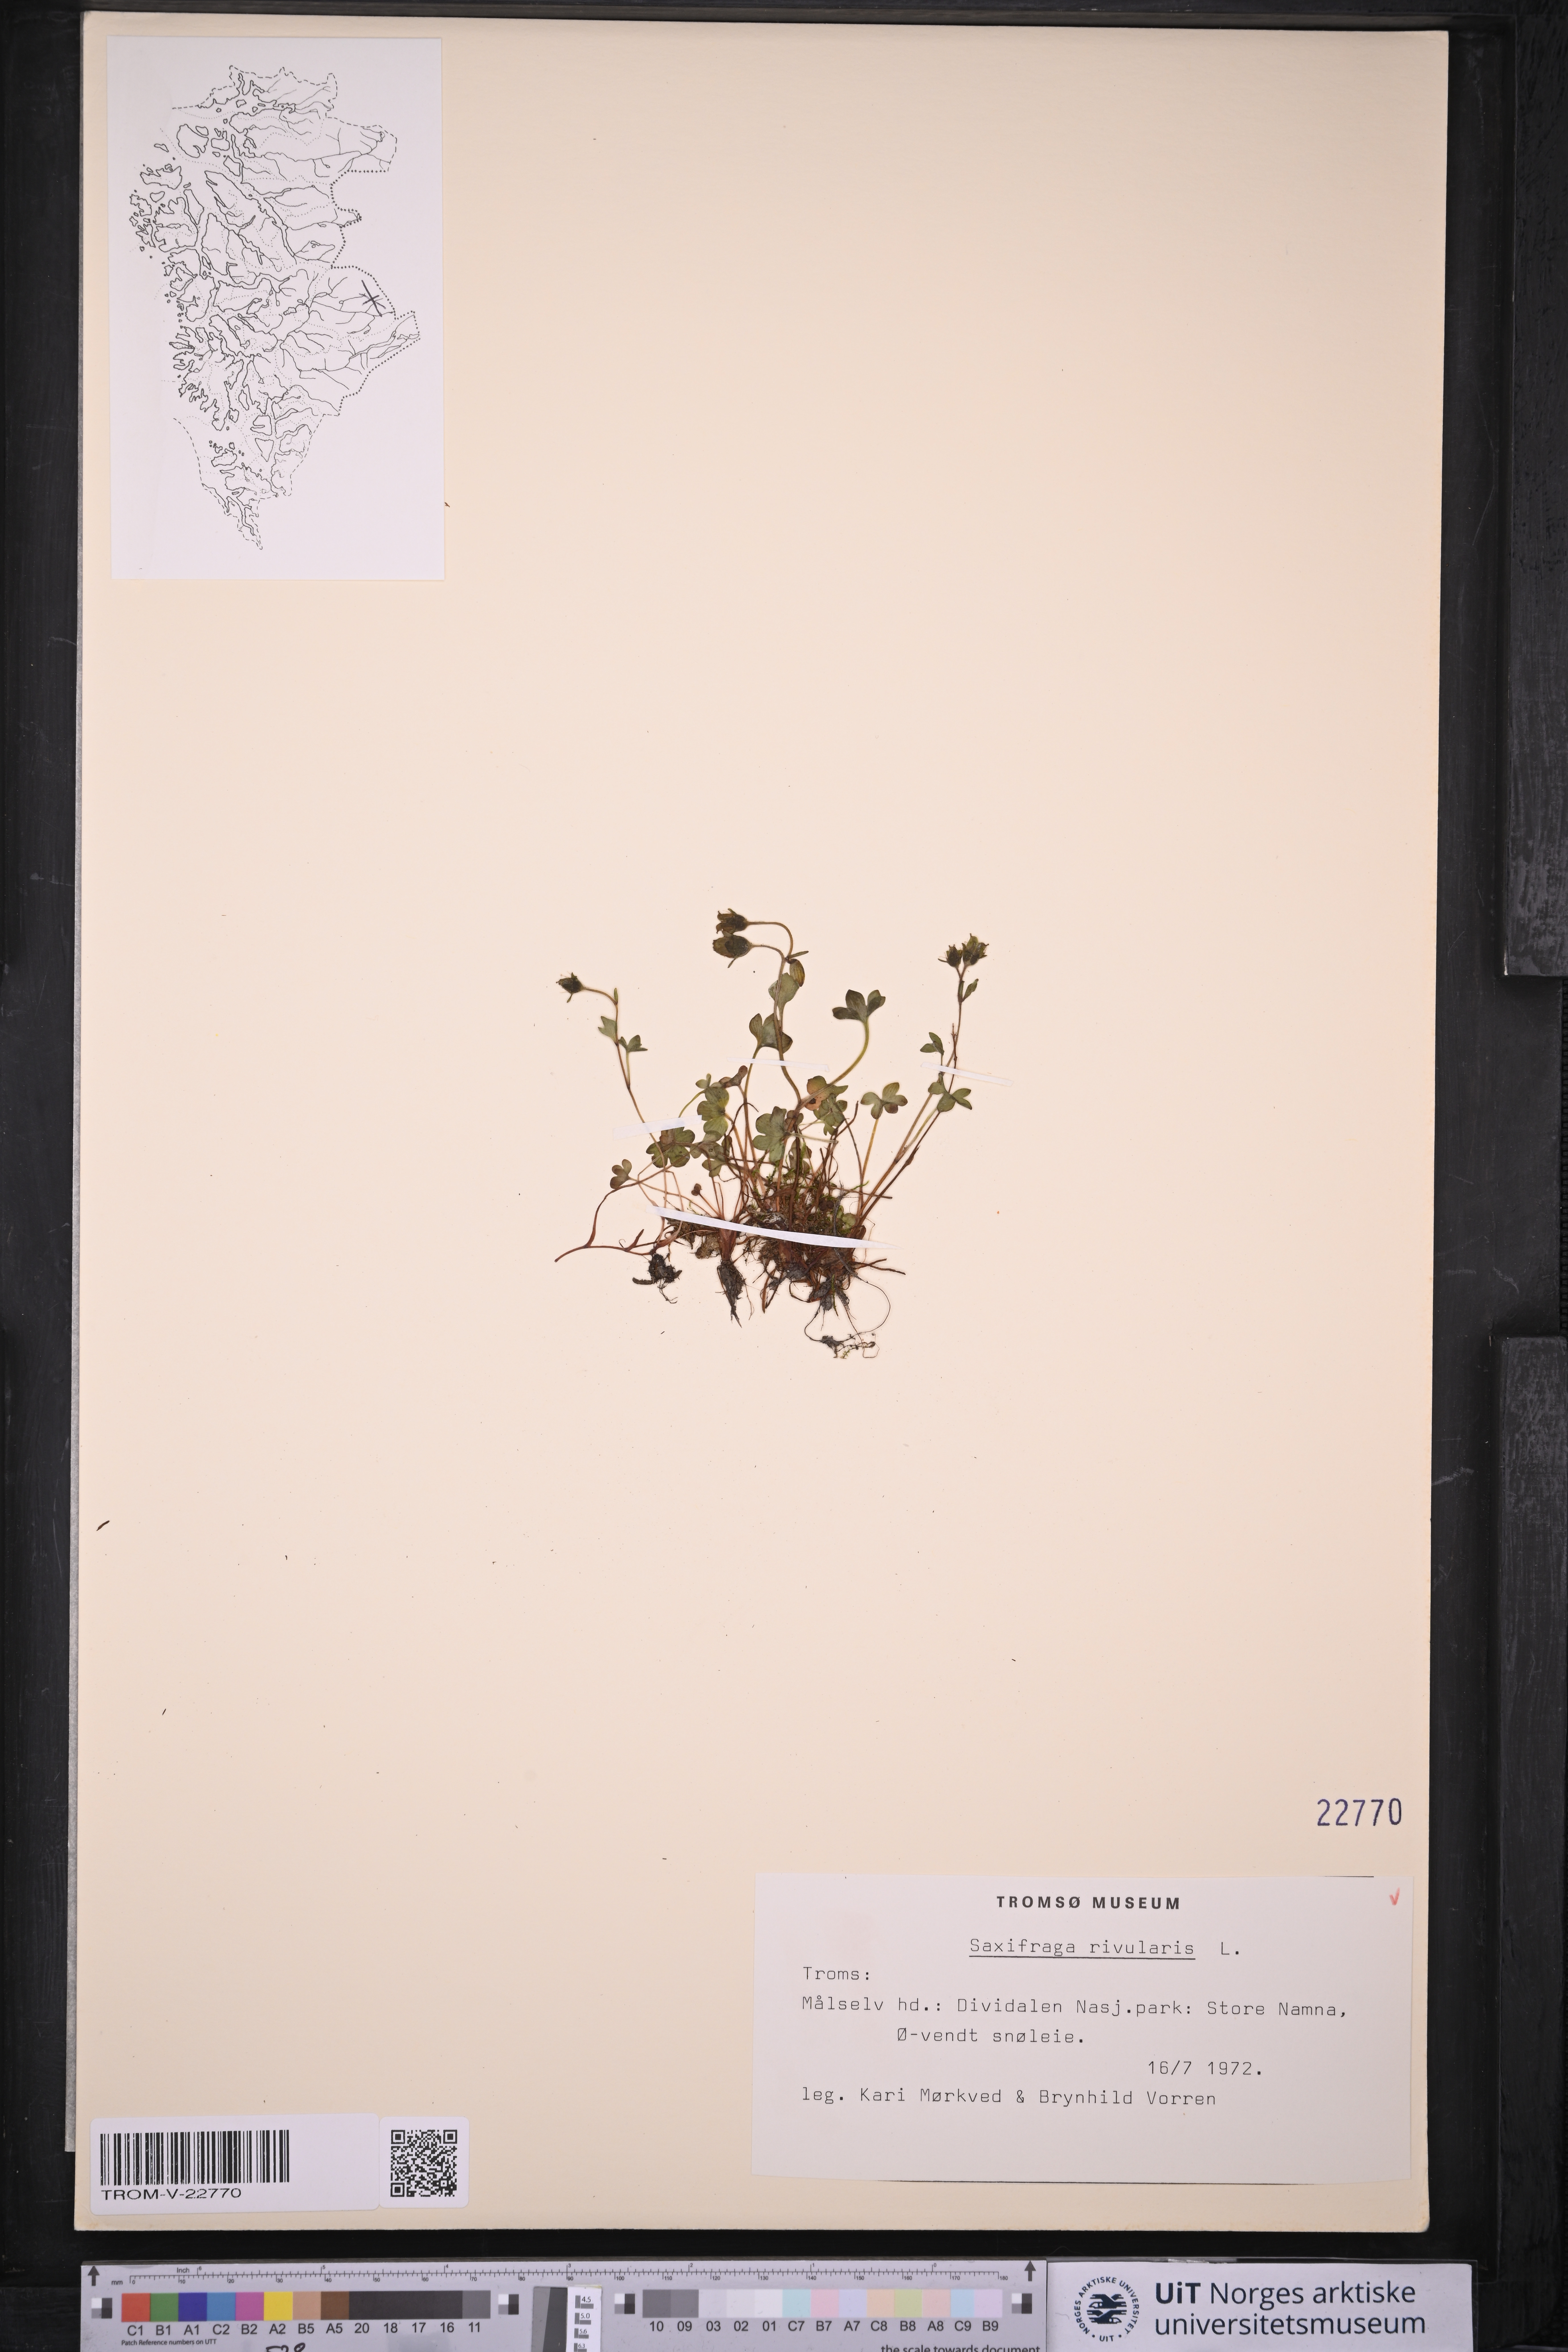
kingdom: Plantae
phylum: Tracheophyta
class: Magnoliopsida
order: Saxifragales
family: Saxifragaceae
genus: Saxifraga
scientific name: Saxifraga rivularis
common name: Highland saxifrage
